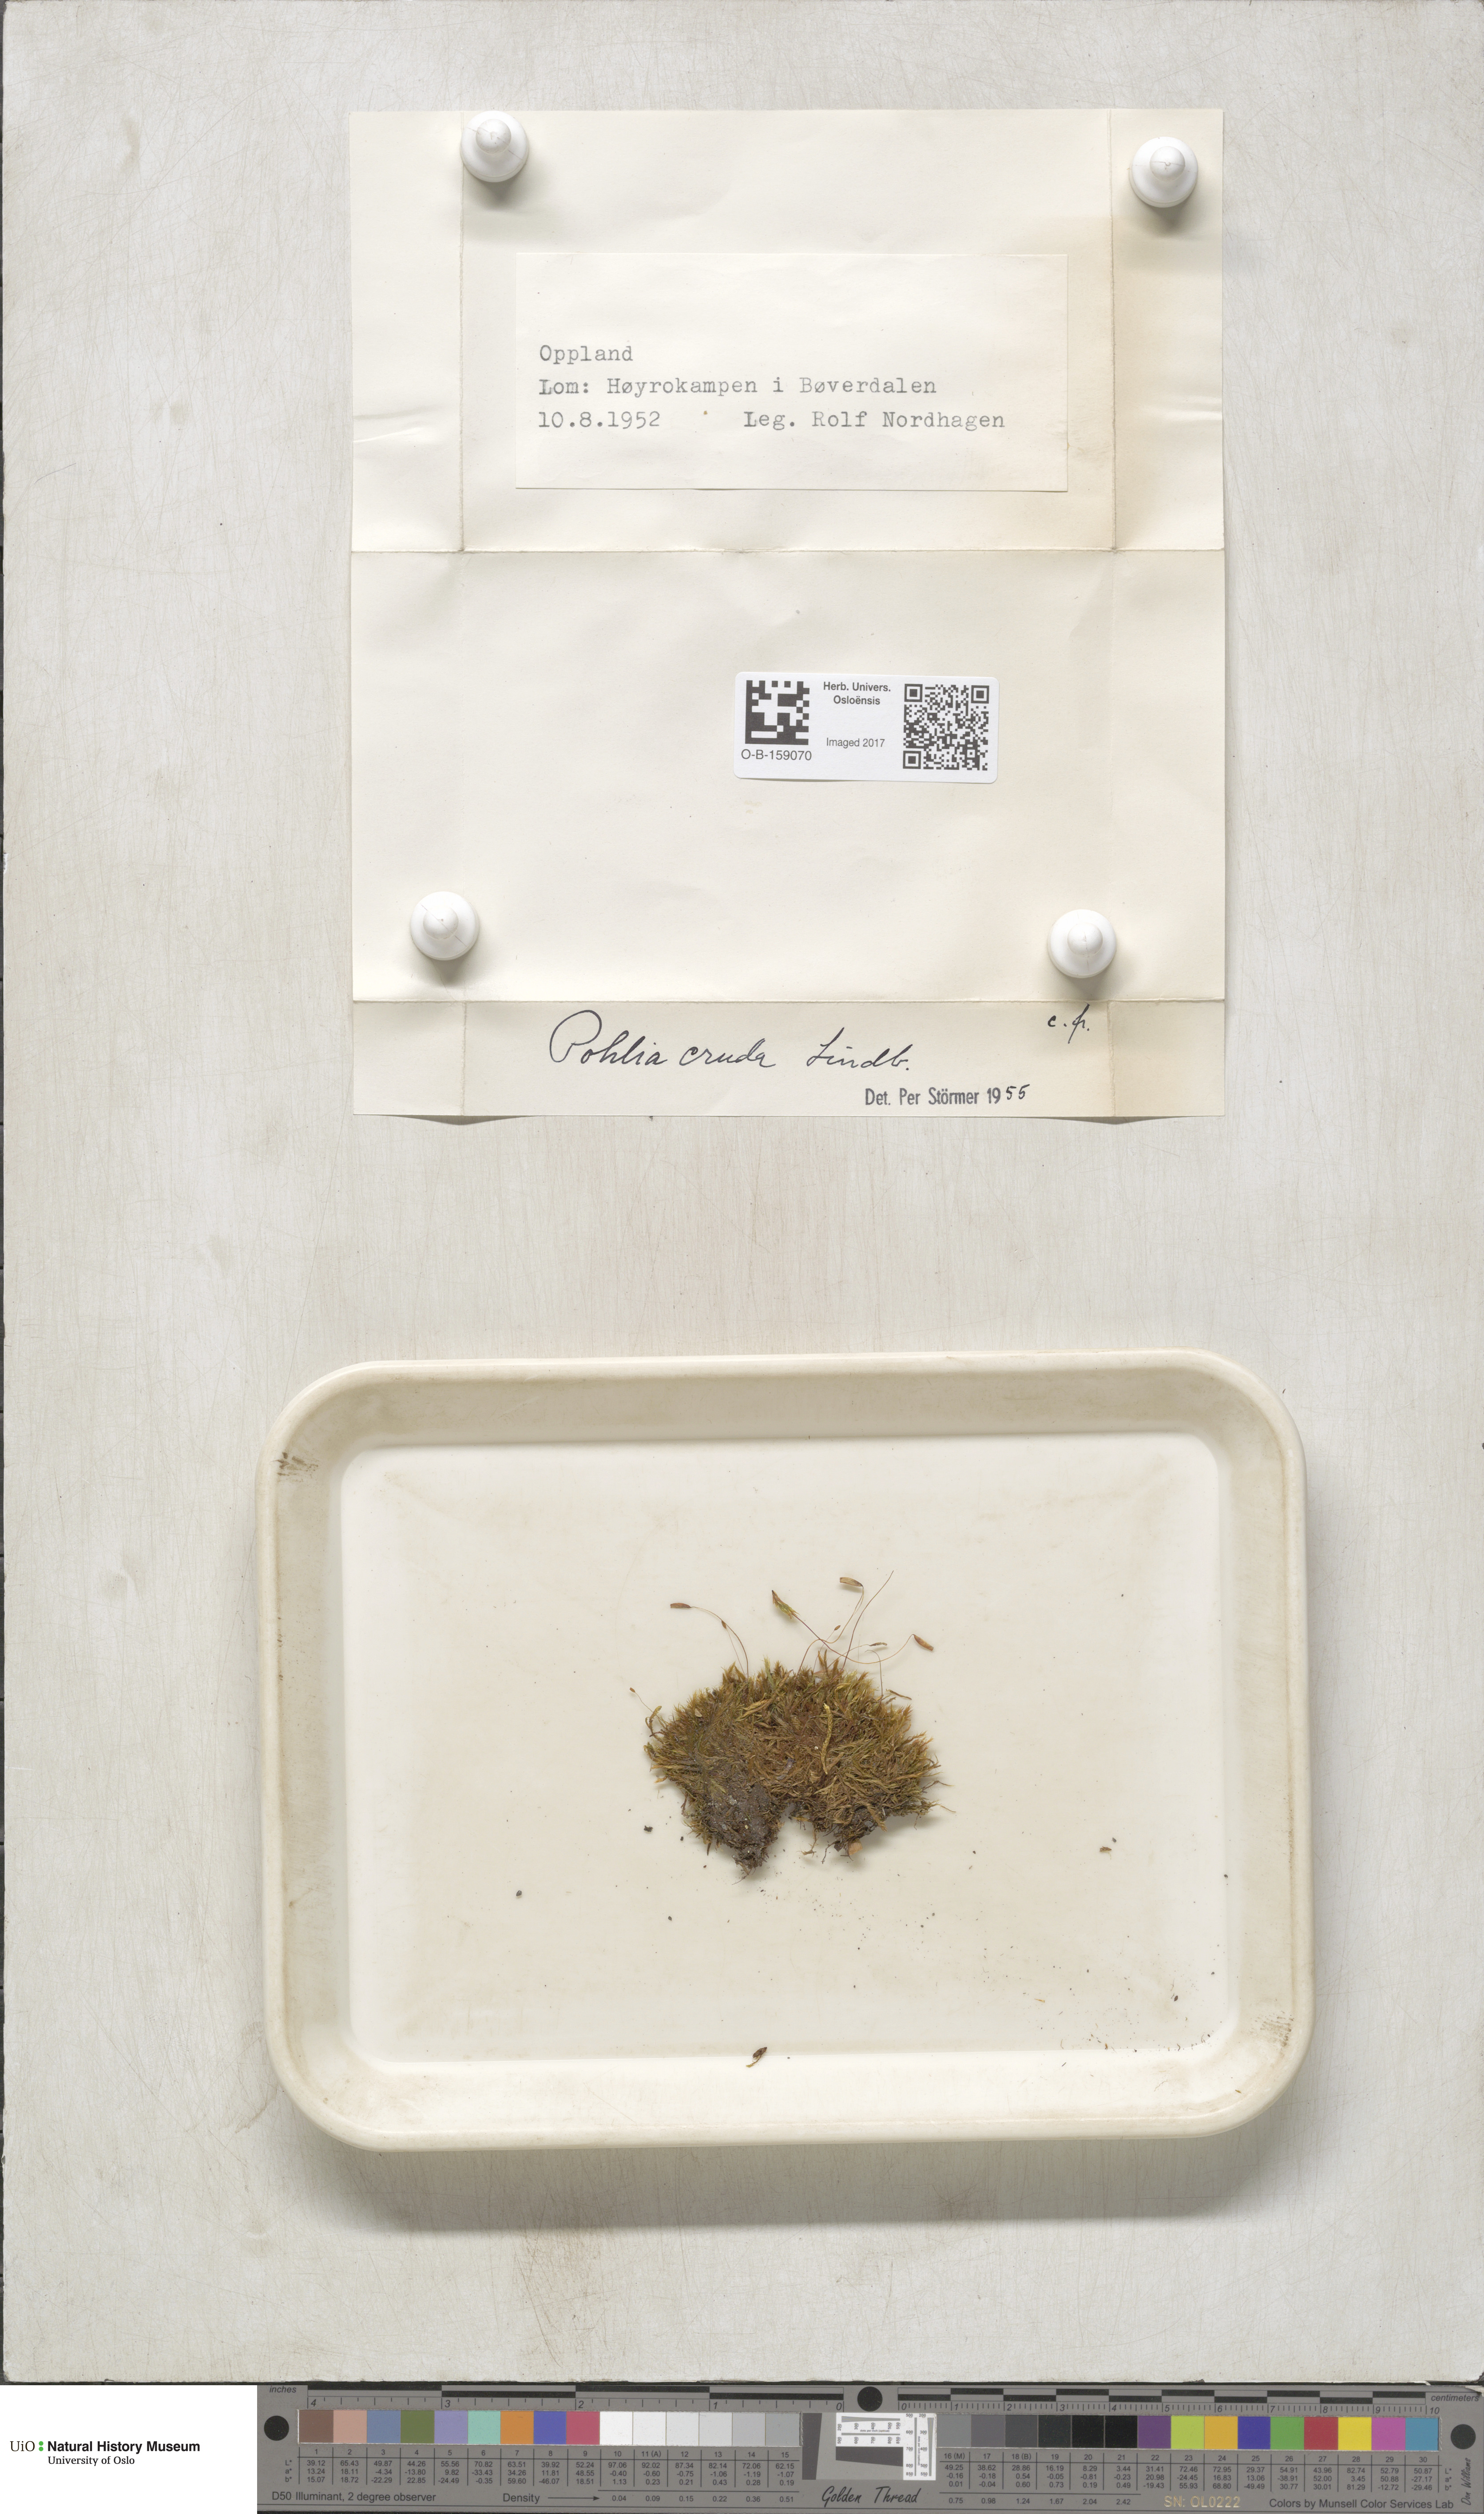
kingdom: Plantae
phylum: Bryophyta
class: Bryopsida
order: Bryales
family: Mniaceae
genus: Pohlia
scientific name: Pohlia cruda
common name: Opal nodding moss
